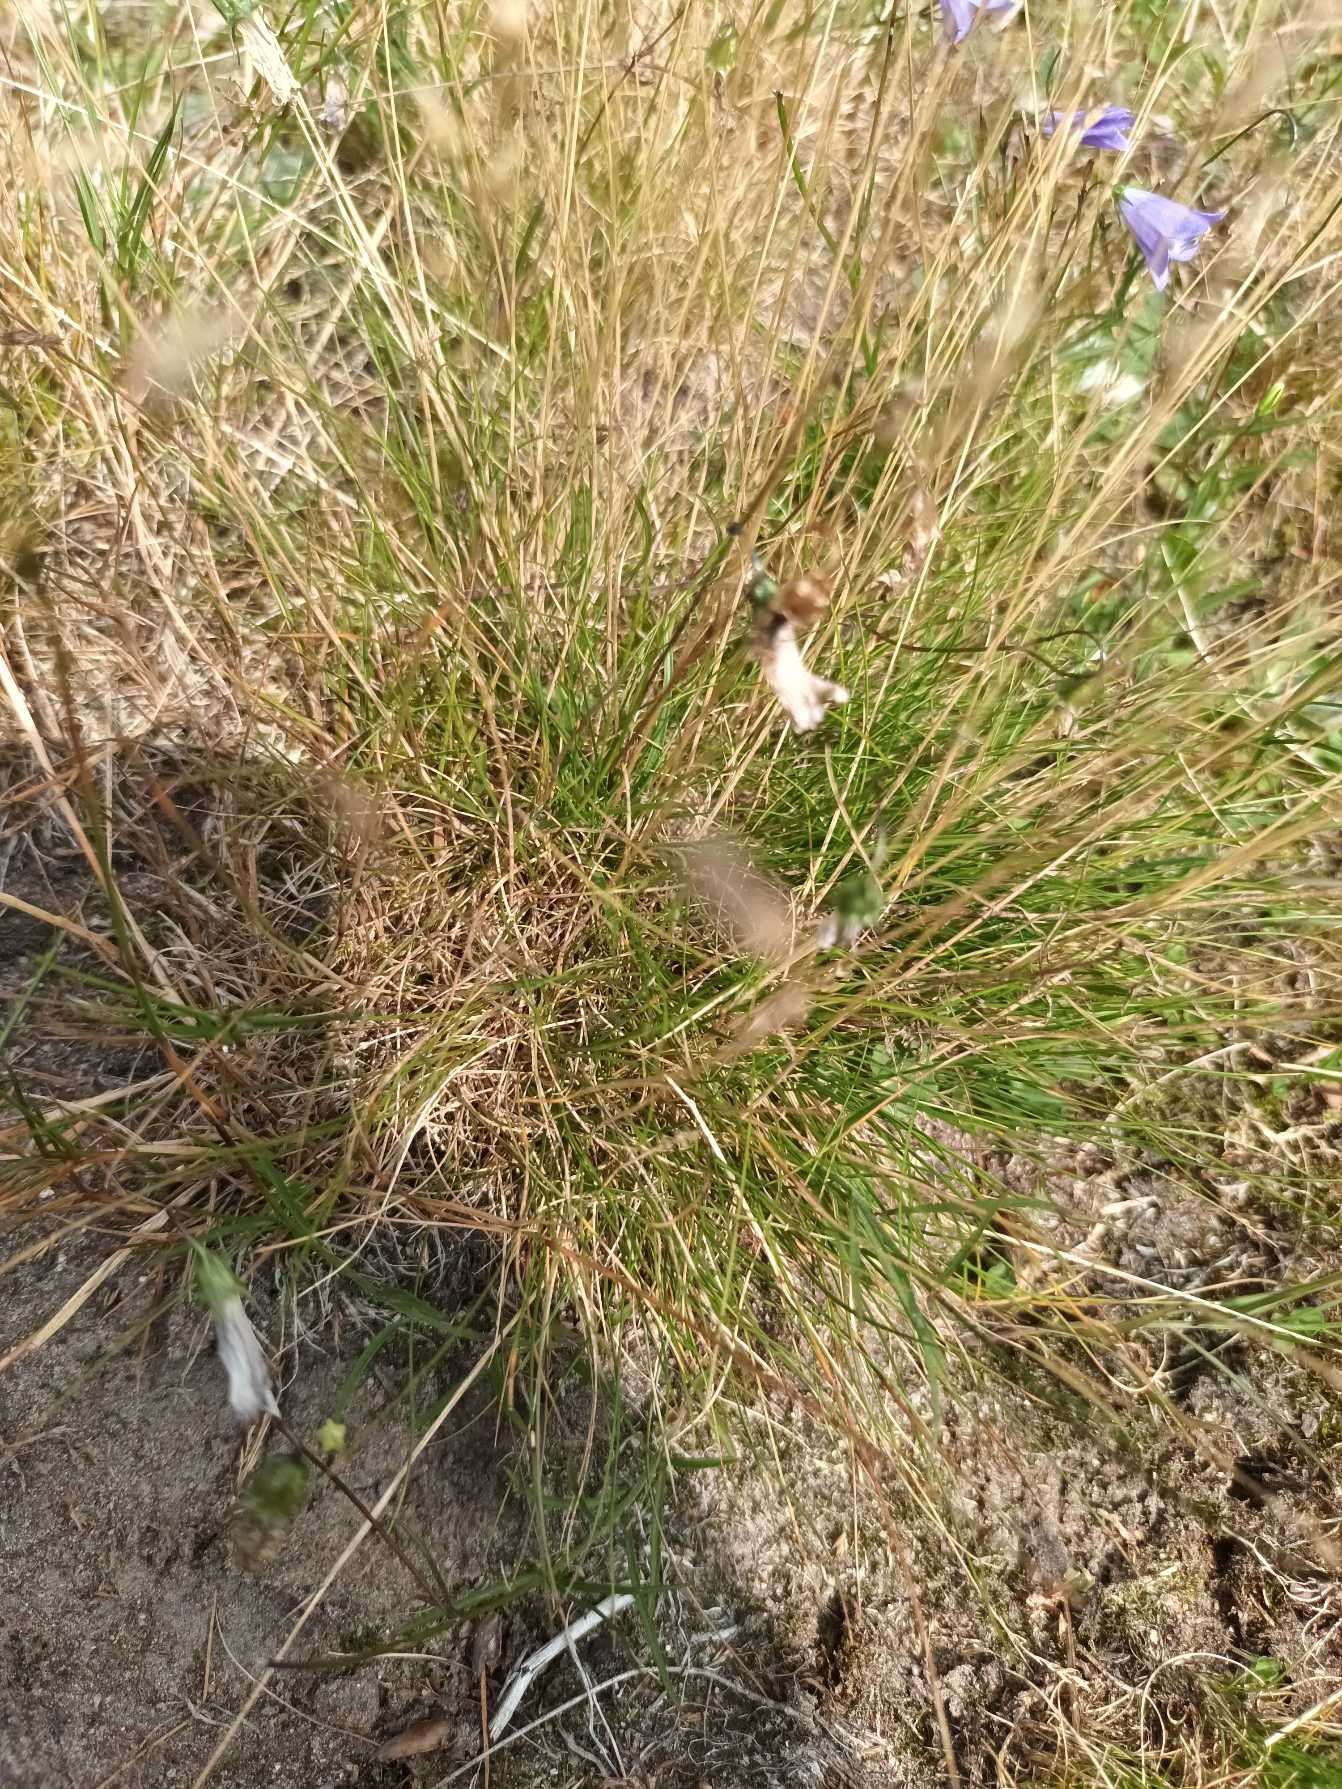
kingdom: Plantae
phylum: Tracheophyta
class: Liliopsida
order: Poales
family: Poaceae
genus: Festuca
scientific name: Festuca ovina
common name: Fåre-svingel
